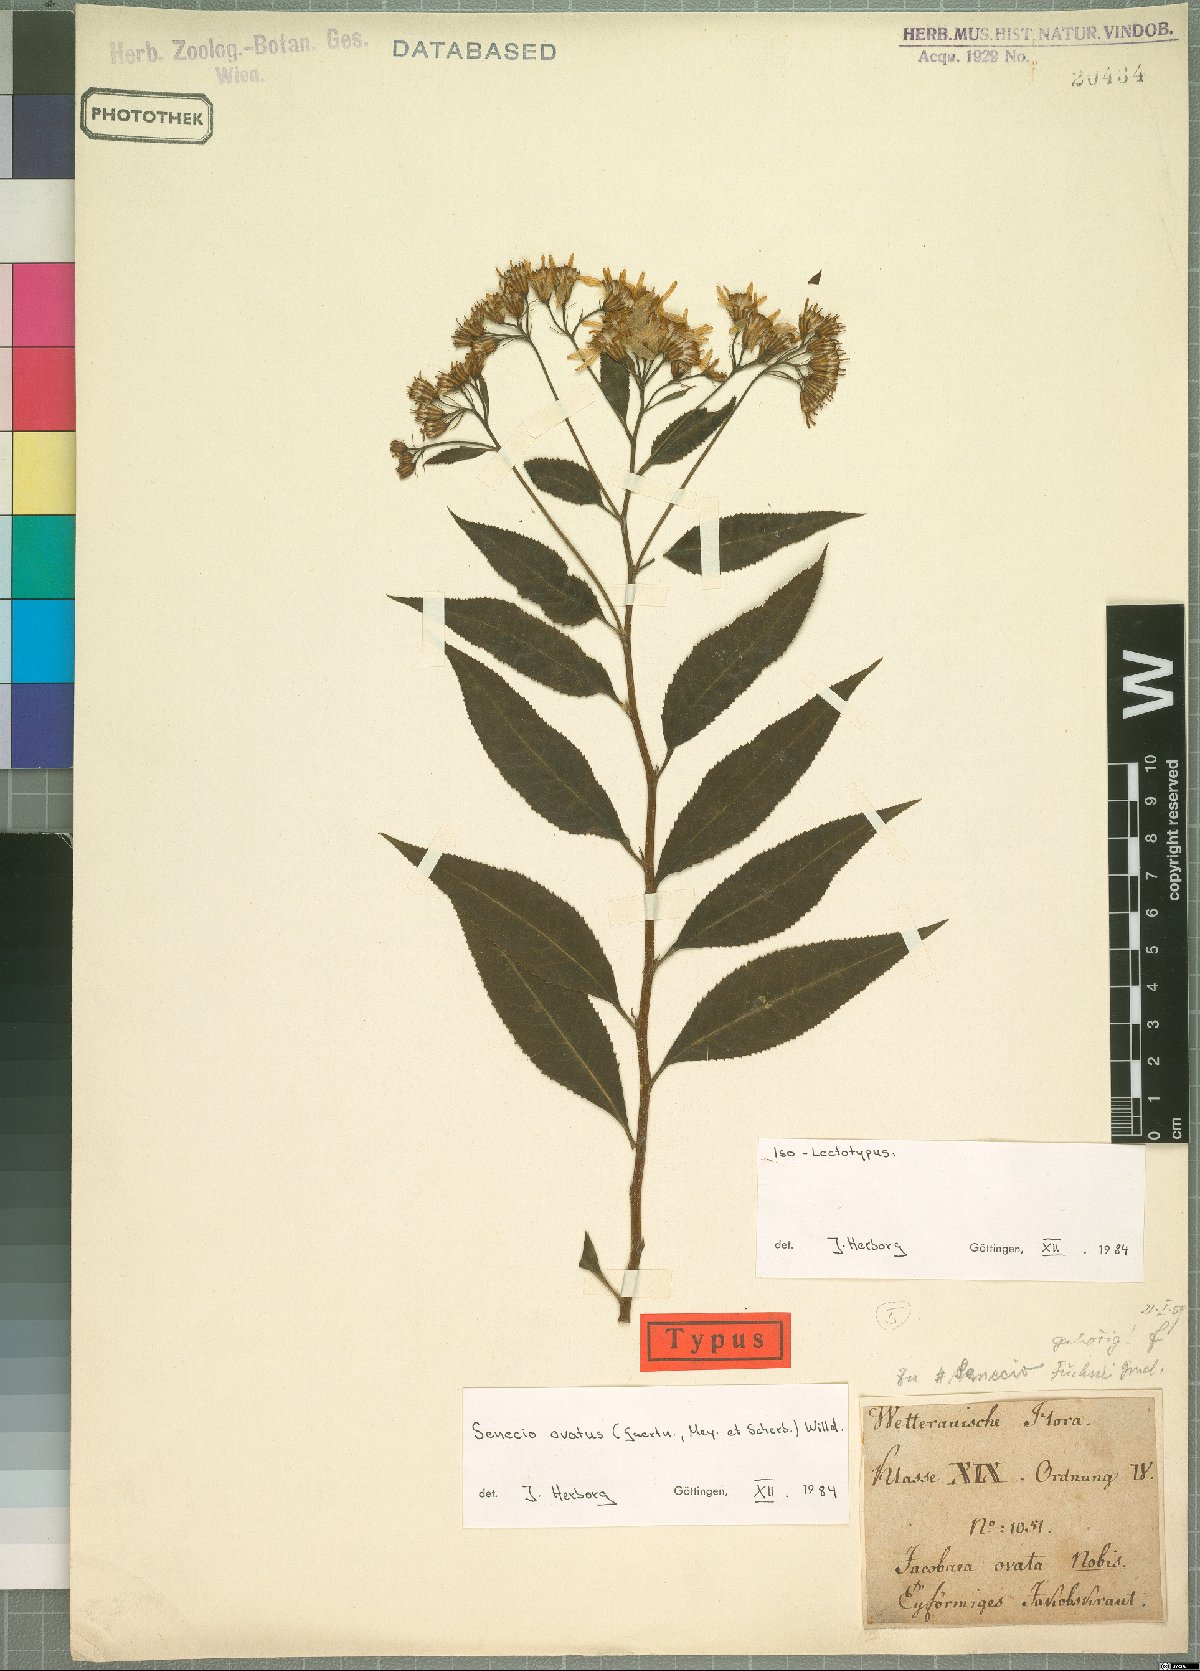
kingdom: Plantae
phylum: Tracheophyta
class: Magnoliopsida
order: Asterales
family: Asteraceae
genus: Senecio
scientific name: Senecio ovatus
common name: Wood ragwort
